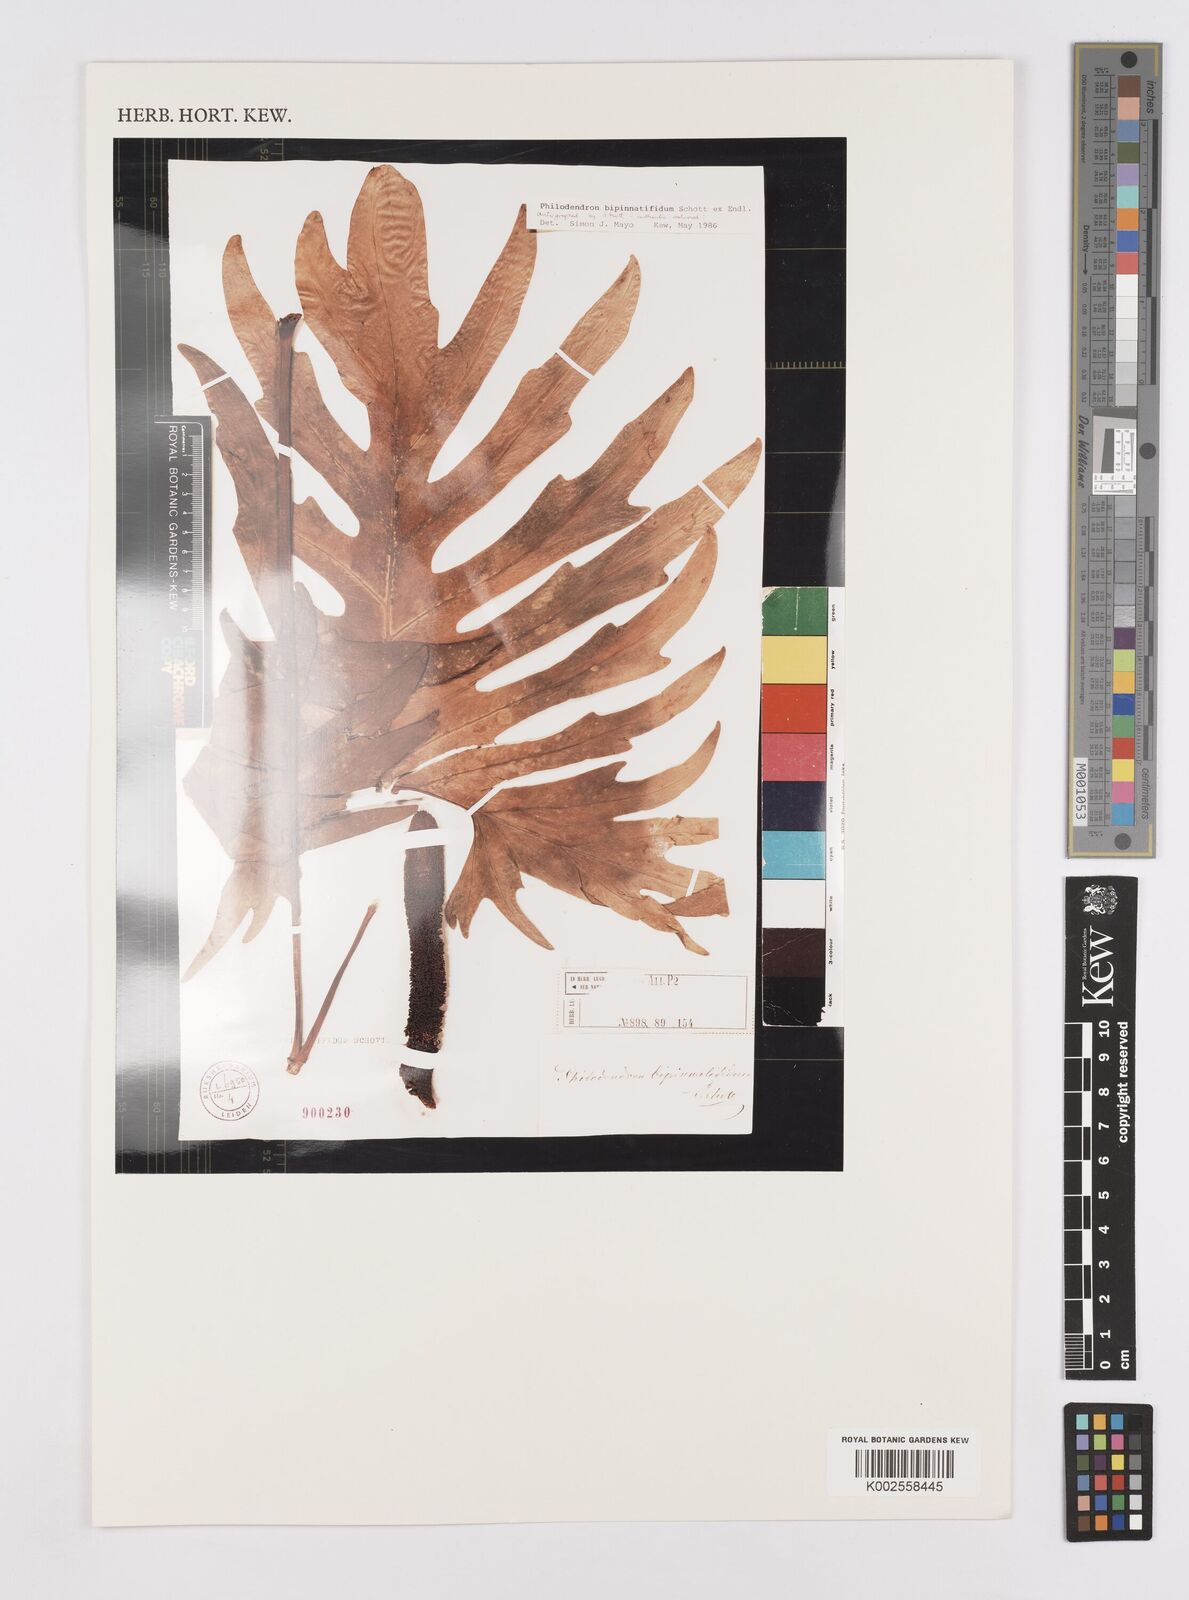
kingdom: Plantae
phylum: Tracheophyta
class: Liliopsida
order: Alismatales
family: Araceae
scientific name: Araceae
